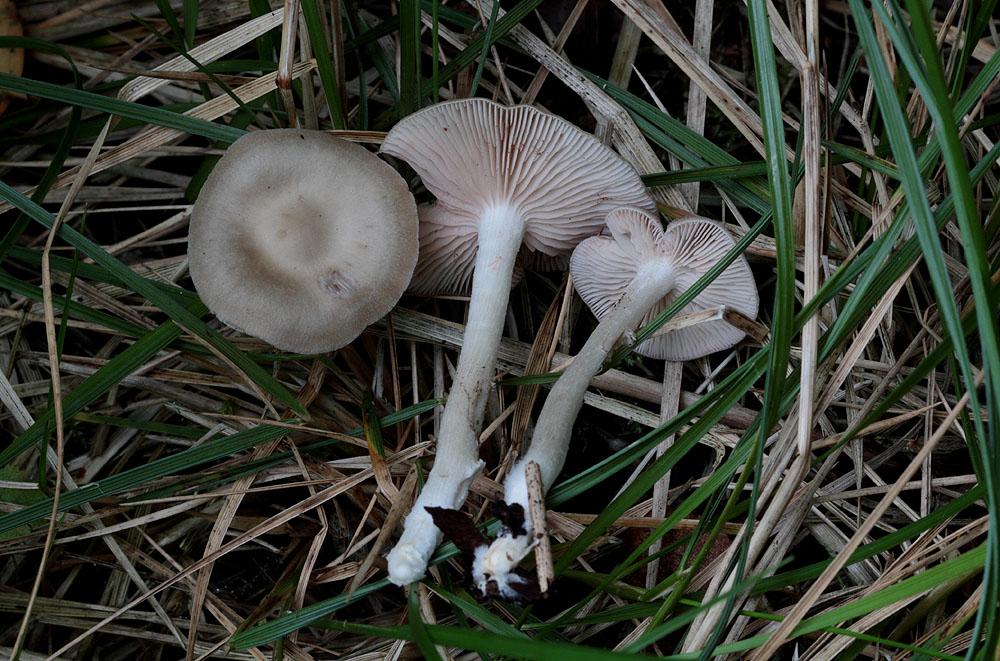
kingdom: Fungi
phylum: Basidiomycota
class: Agaricomycetes
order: Agaricales
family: Entolomataceae
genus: Entoloma
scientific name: Entoloma sericatum
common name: rank rødblad
